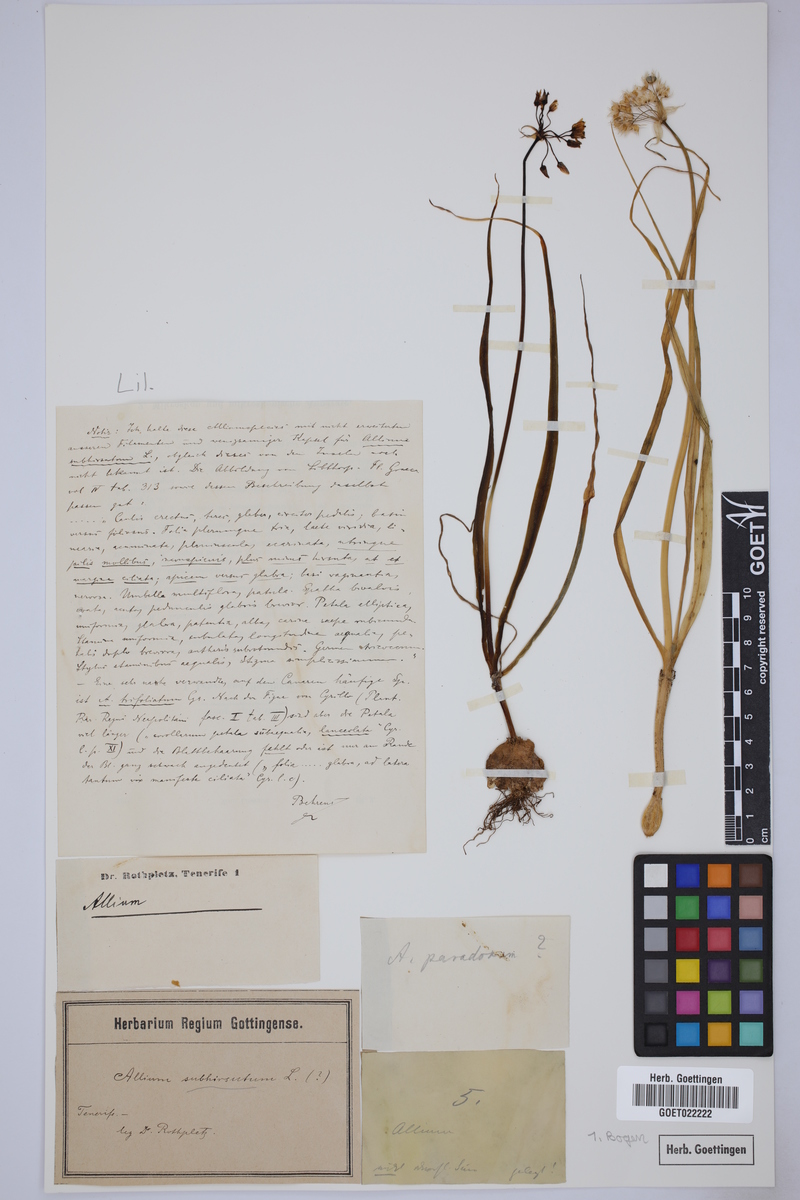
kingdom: Plantae
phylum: Tracheophyta
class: Liliopsida
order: Asparagales
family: Amaryllidaceae
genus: Allium
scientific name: Allium subhirsutum
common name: Hairy garlic
